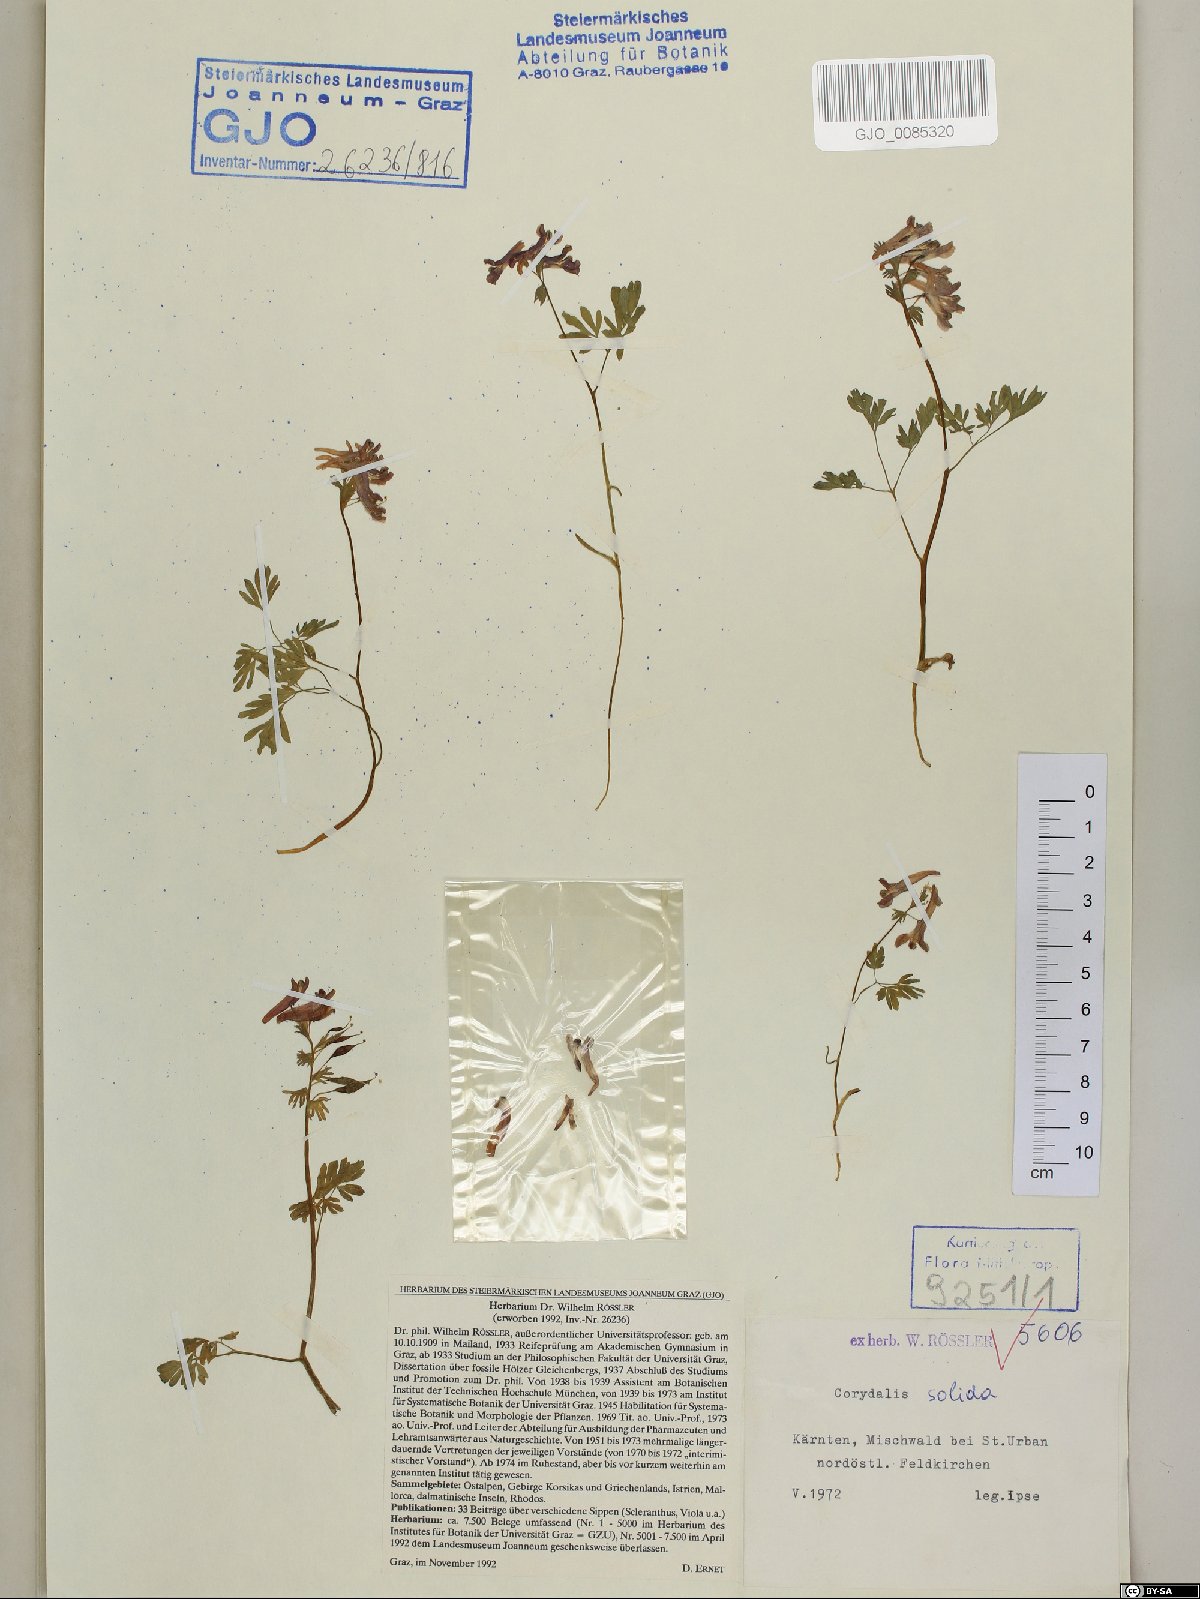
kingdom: Plantae
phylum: Tracheophyta
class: Magnoliopsida
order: Ranunculales
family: Papaveraceae
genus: Corydalis
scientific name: Corydalis solida
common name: Bird-in-a-bush
